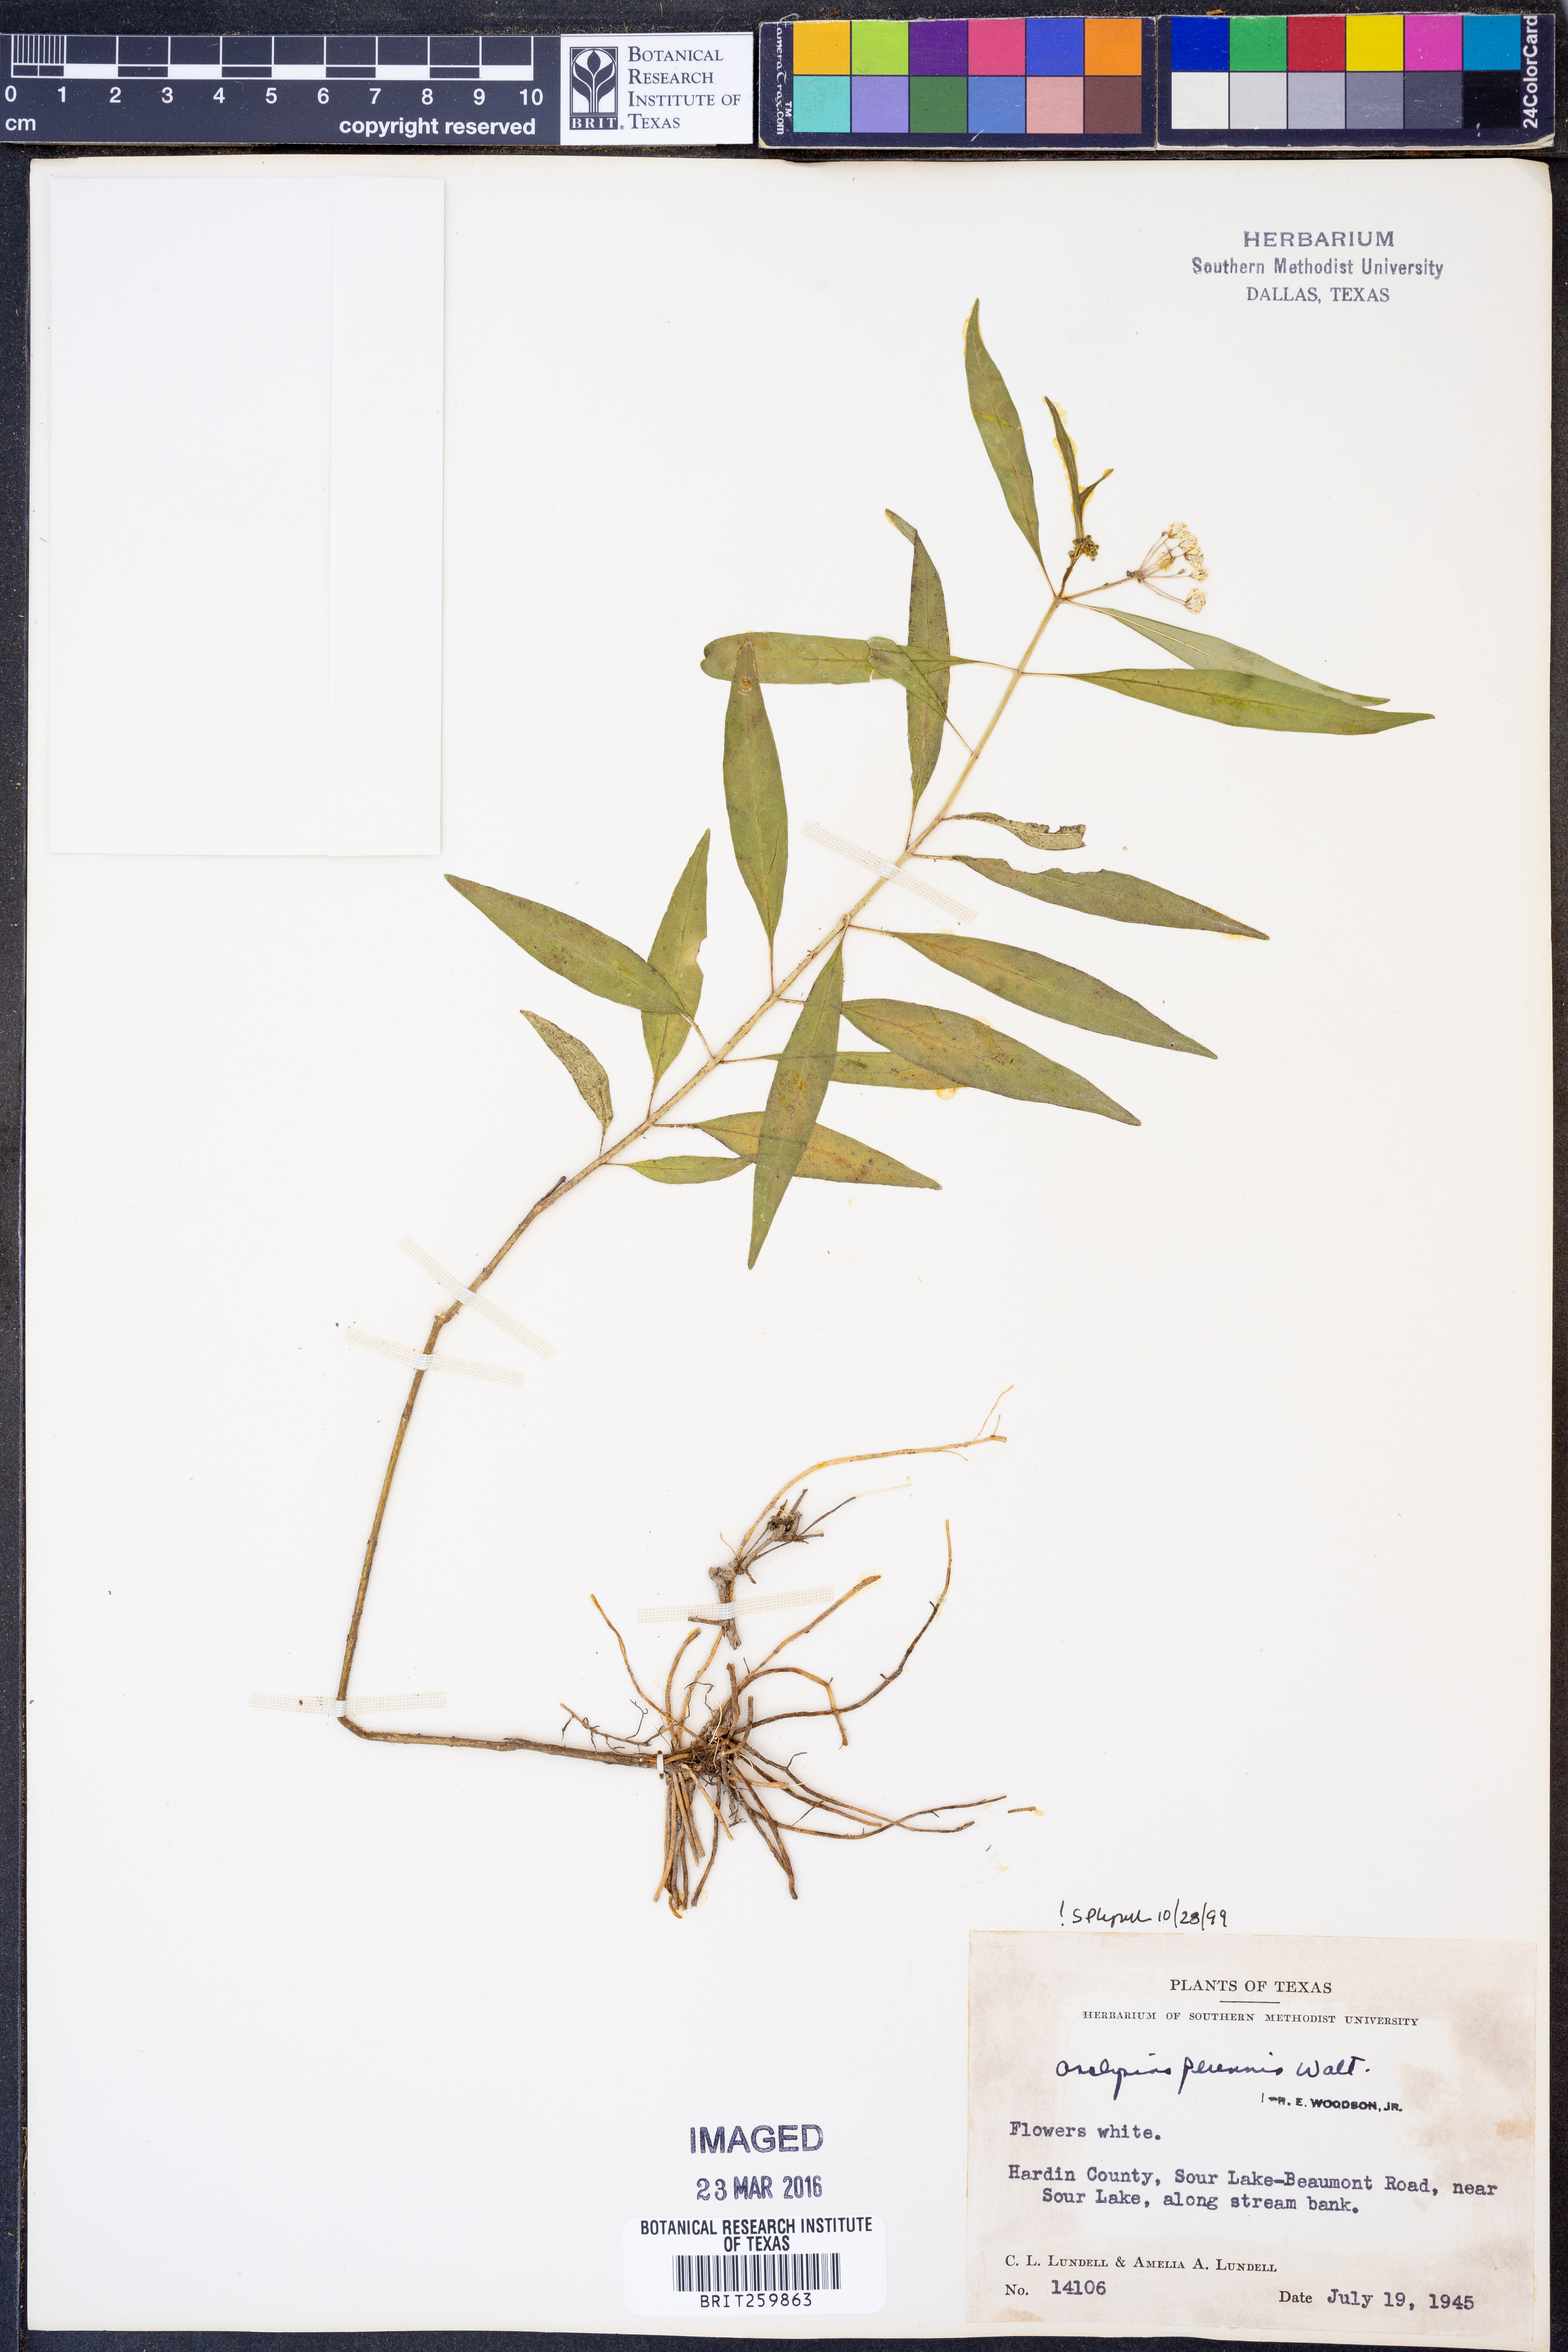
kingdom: Plantae
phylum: Tracheophyta
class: Magnoliopsida
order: Gentianales
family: Apocynaceae
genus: Asclepias
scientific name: Asclepias perennis
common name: Smooth-seed milkweed
